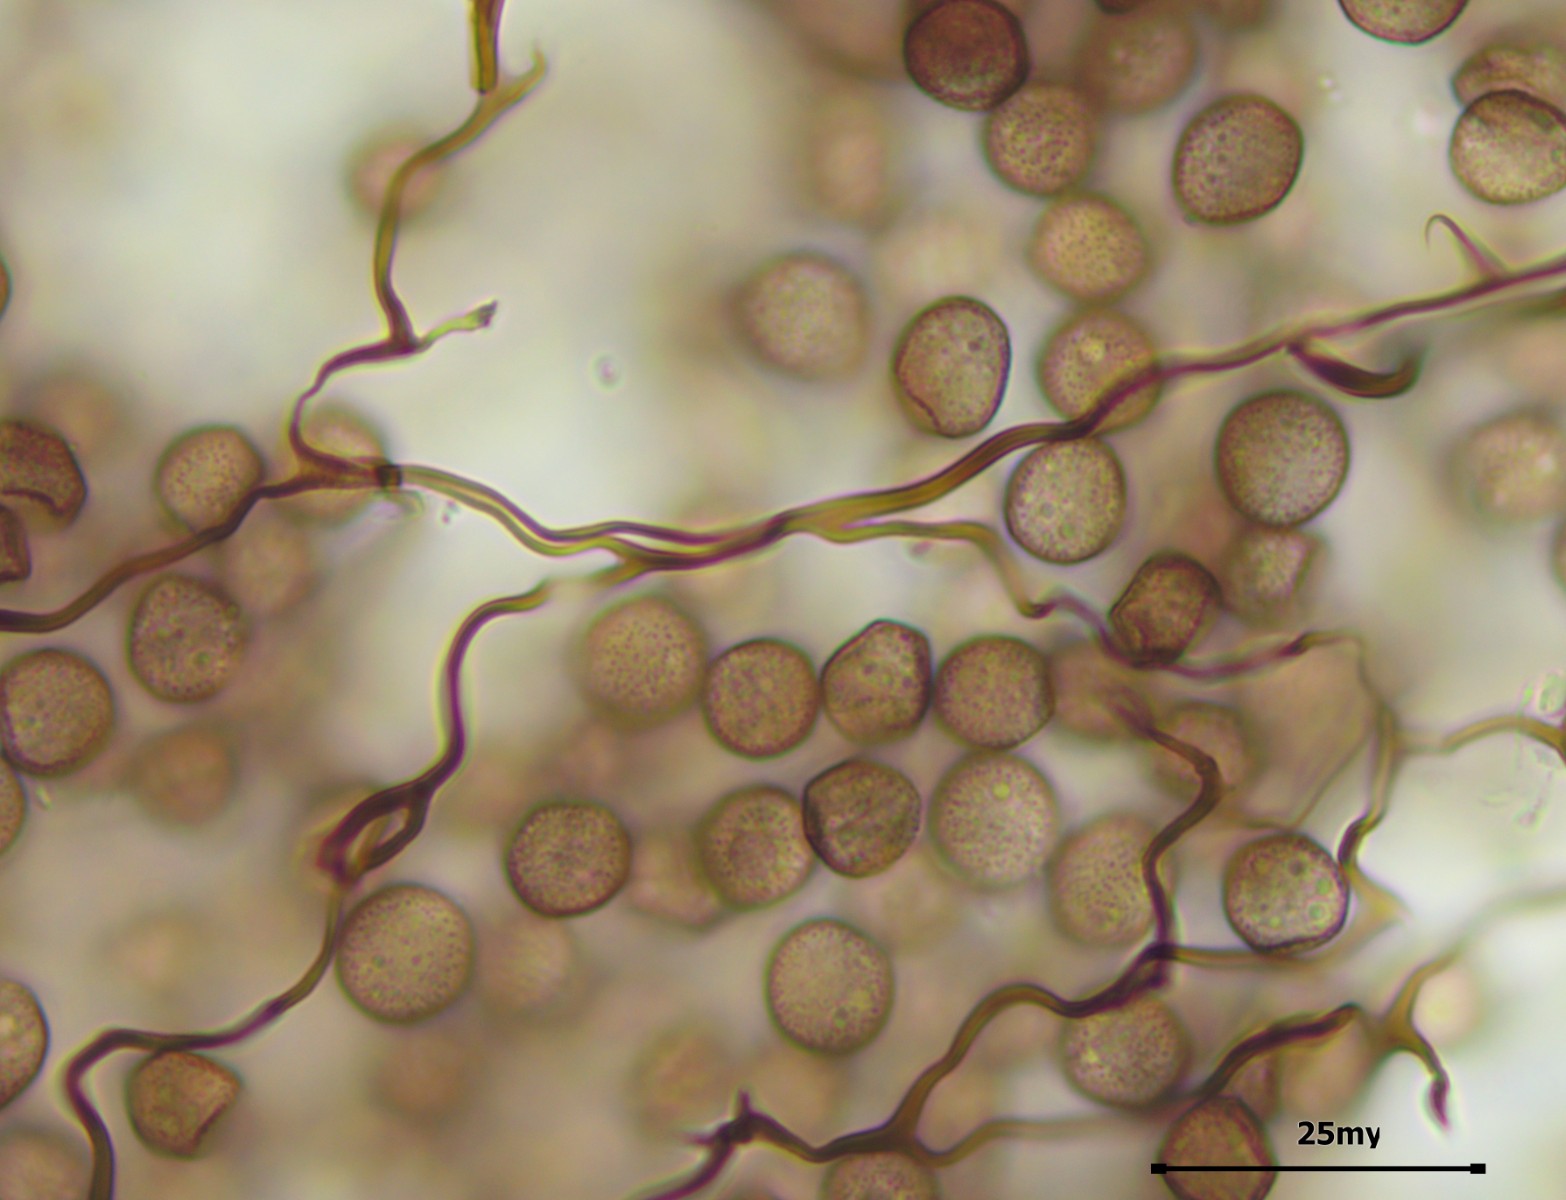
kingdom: Protozoa
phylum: Mycetozoa
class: Myxomycetes
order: Stemonitidales
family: Stemonitidaceae
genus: Comatricha
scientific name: Comatricha nigra
